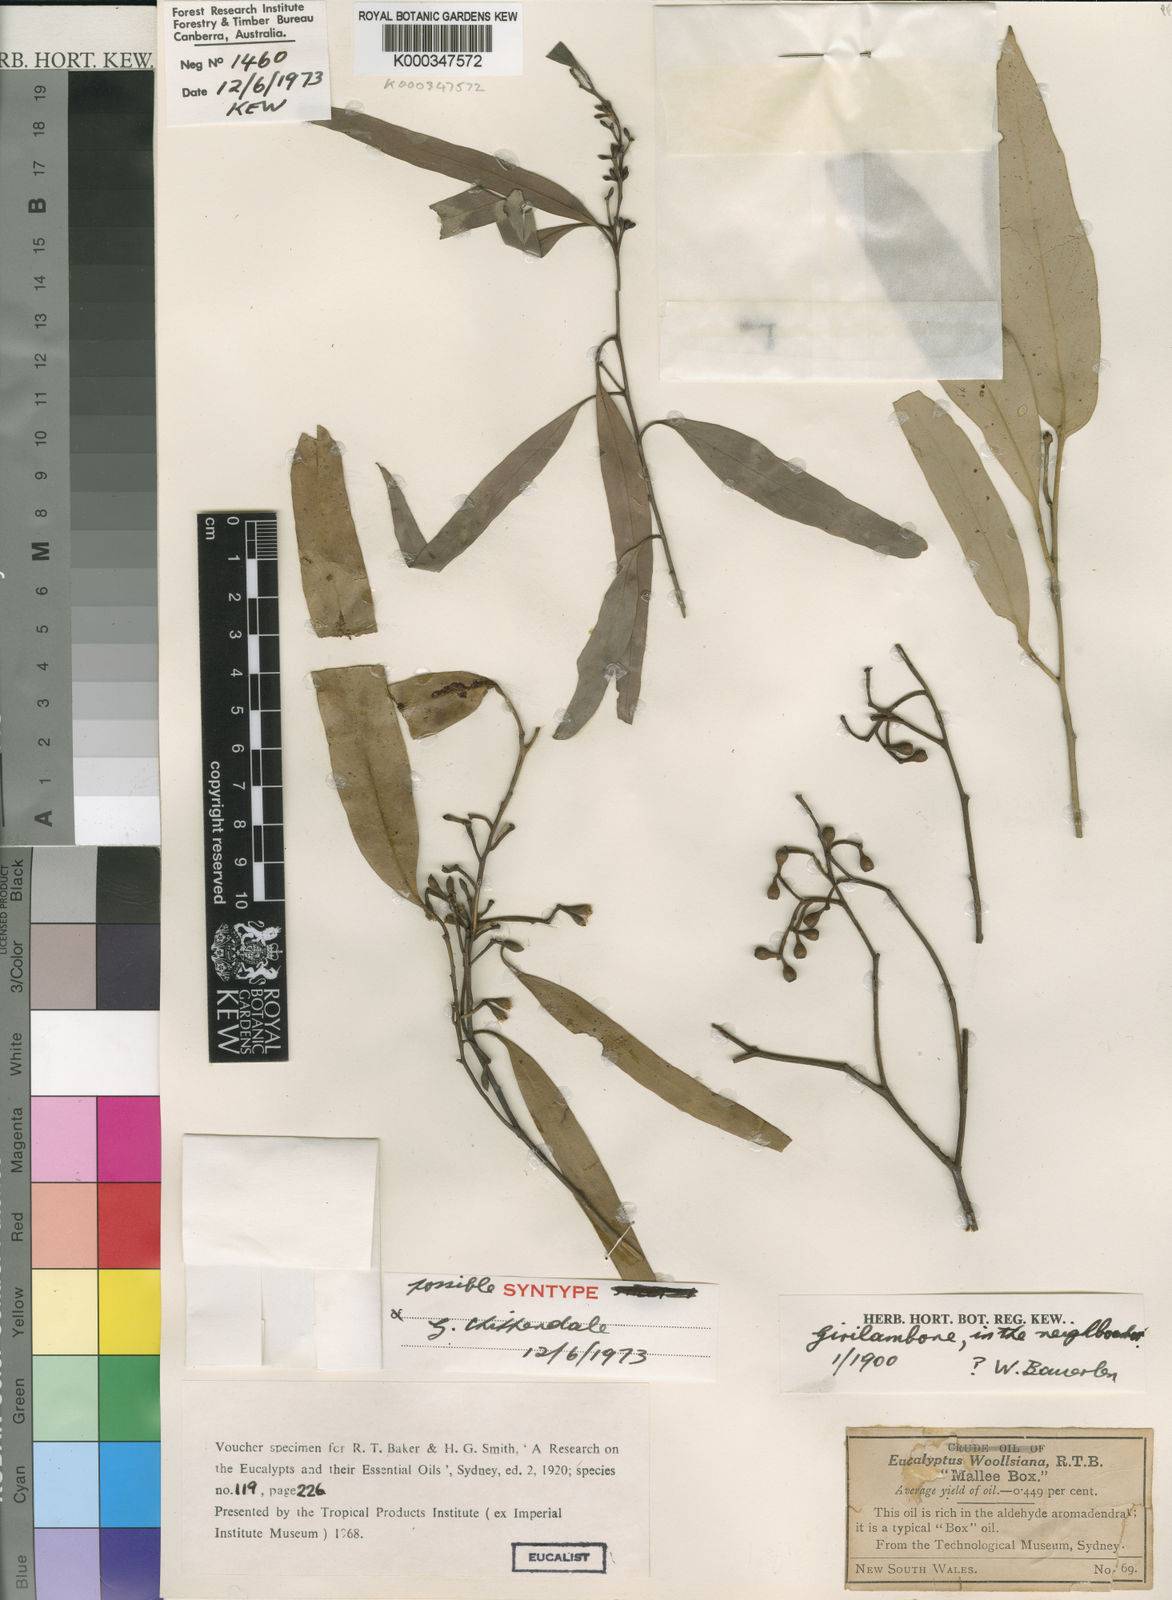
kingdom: Plantae
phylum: Tracheophyta
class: Magnoliopsida
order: Myrtales
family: Myrtaceae
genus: Eucalyptus
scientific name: Eucalyptus woollsiana
